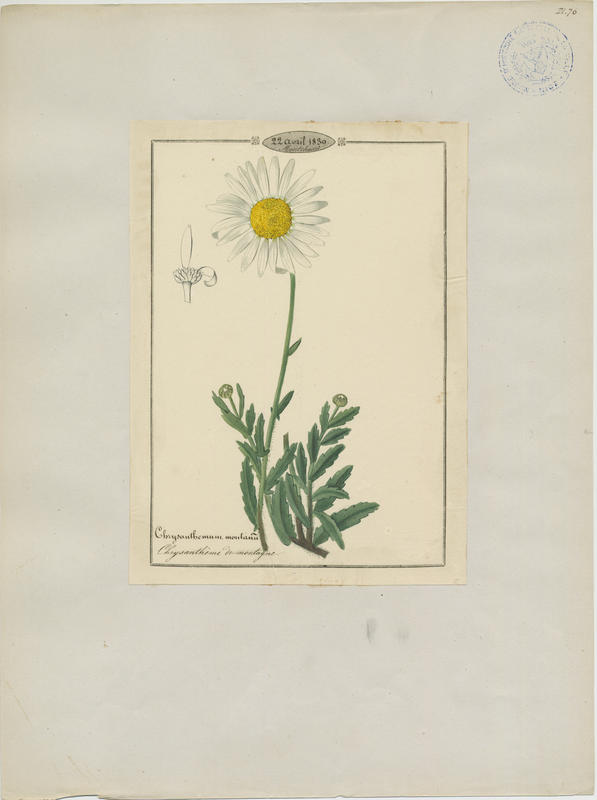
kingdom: Plantae
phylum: Tracheophyta
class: Magnoliopsida
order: Asterales
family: Asteraceae
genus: Leucanthemum
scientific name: Leucanthemum adustum
